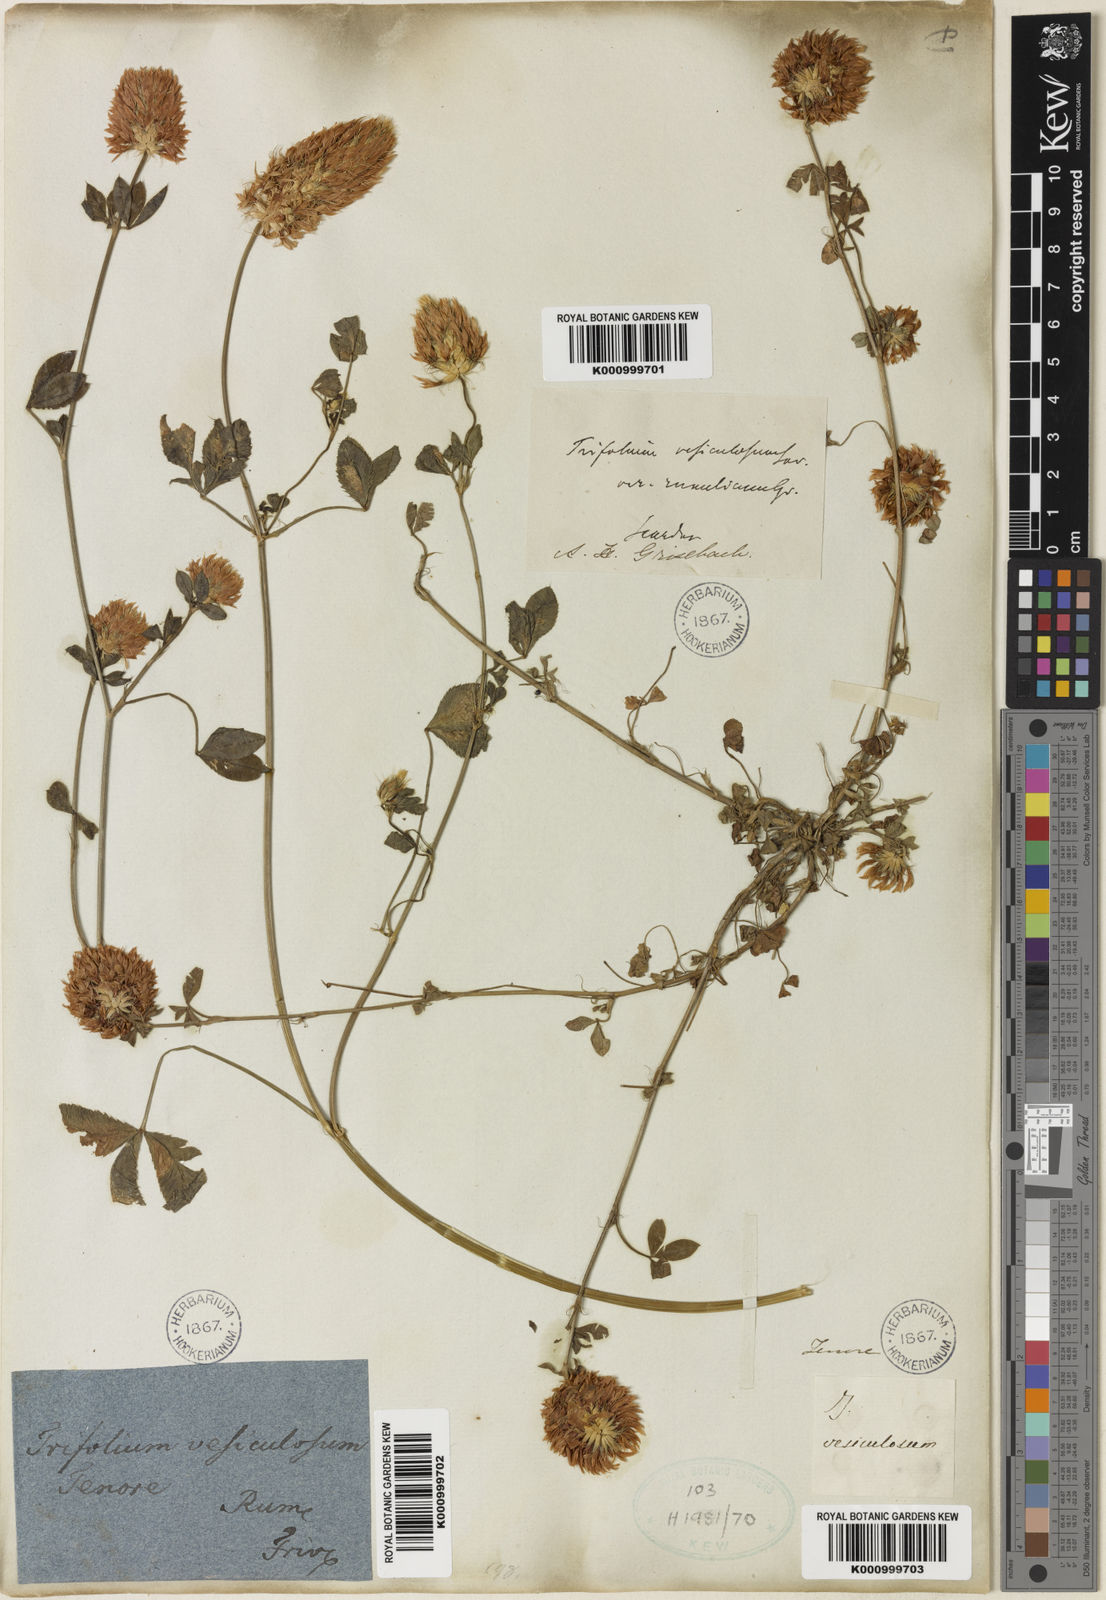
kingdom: Plantae
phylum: Tracheophyta
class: Magnoliopsida
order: Fabales
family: Fabaceae
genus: Trifolium
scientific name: Trifolium vesiculosum
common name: Arrowleaf clover
